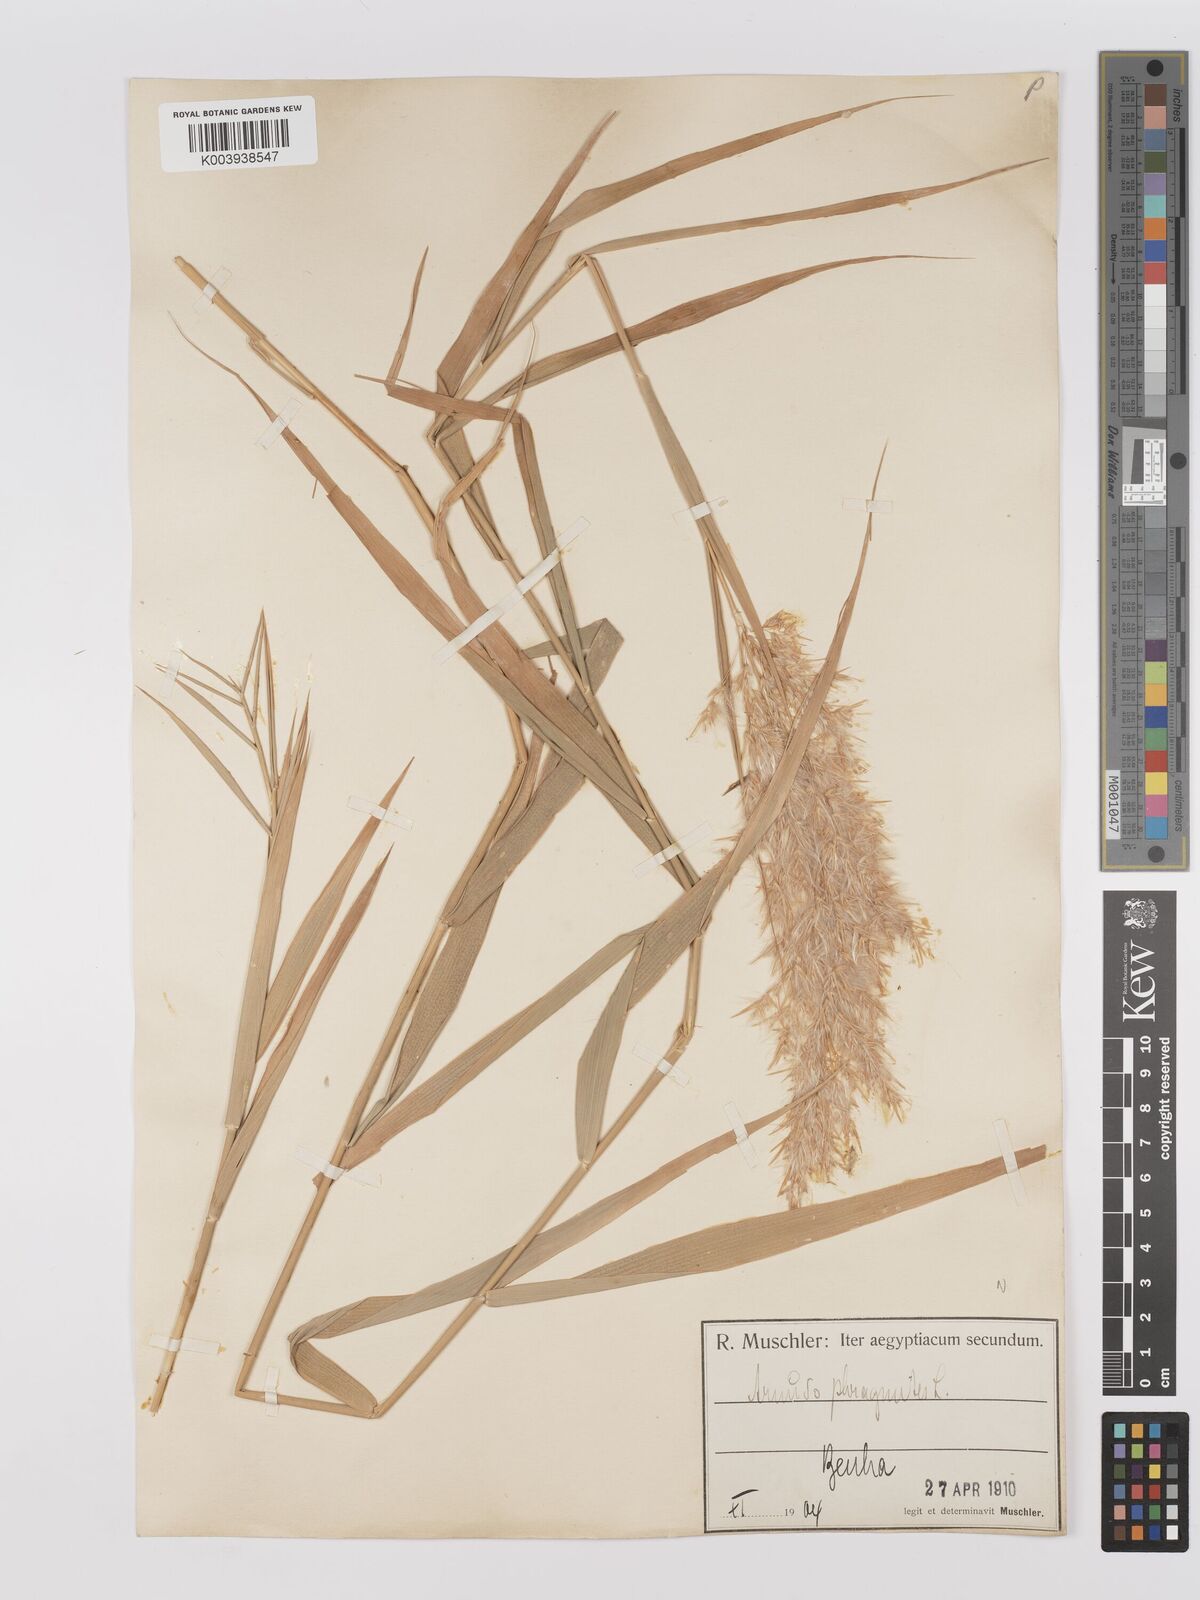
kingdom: Plantae
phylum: Tracheophyta
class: Liliopsida
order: Poales
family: Poaceae
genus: Phragmites
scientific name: Phragmites australis
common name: Common reed
